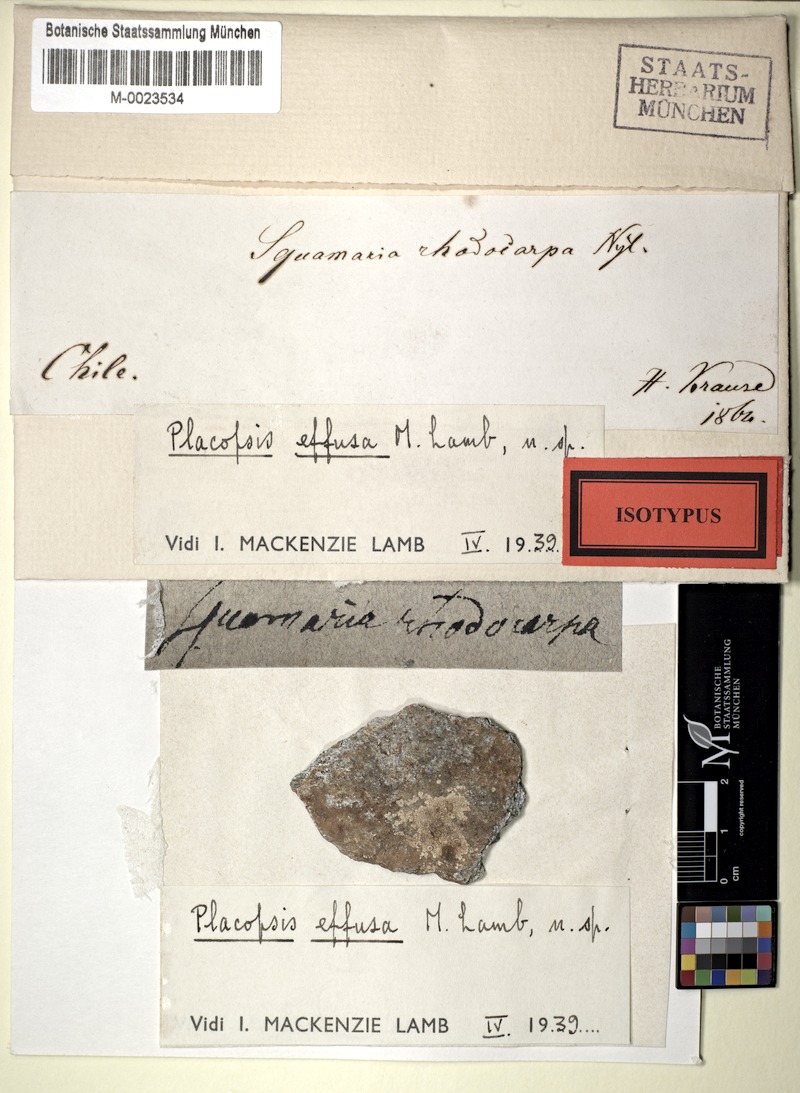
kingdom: Fungi
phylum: Ascomycota
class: Lecanoromycetes
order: Baeomycetales
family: Trapeliaceae
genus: Placopsis
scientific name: Placopsis effusa
